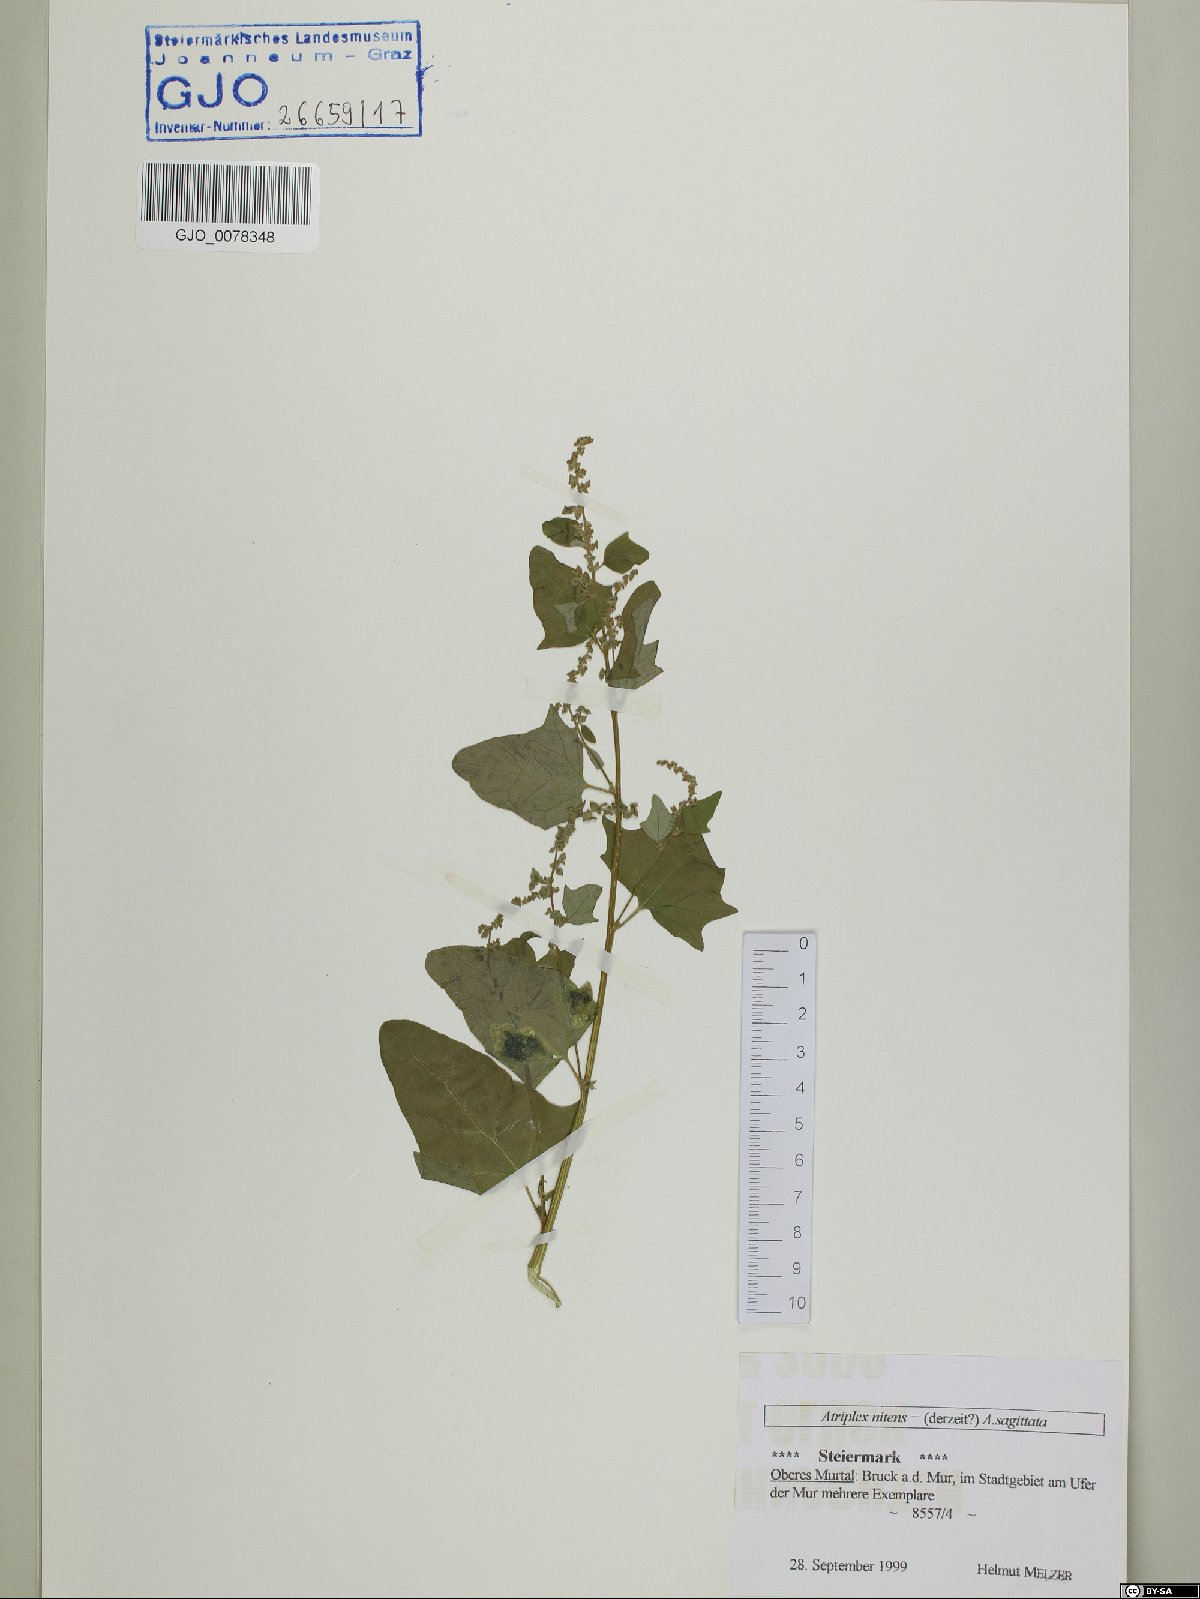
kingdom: Plantae
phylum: Tracheophyta
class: Magnoliopsida
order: Caryophyllales
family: Amaranthaceae
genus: Atriplex
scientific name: Atriplex sagittata
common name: Purple orache
